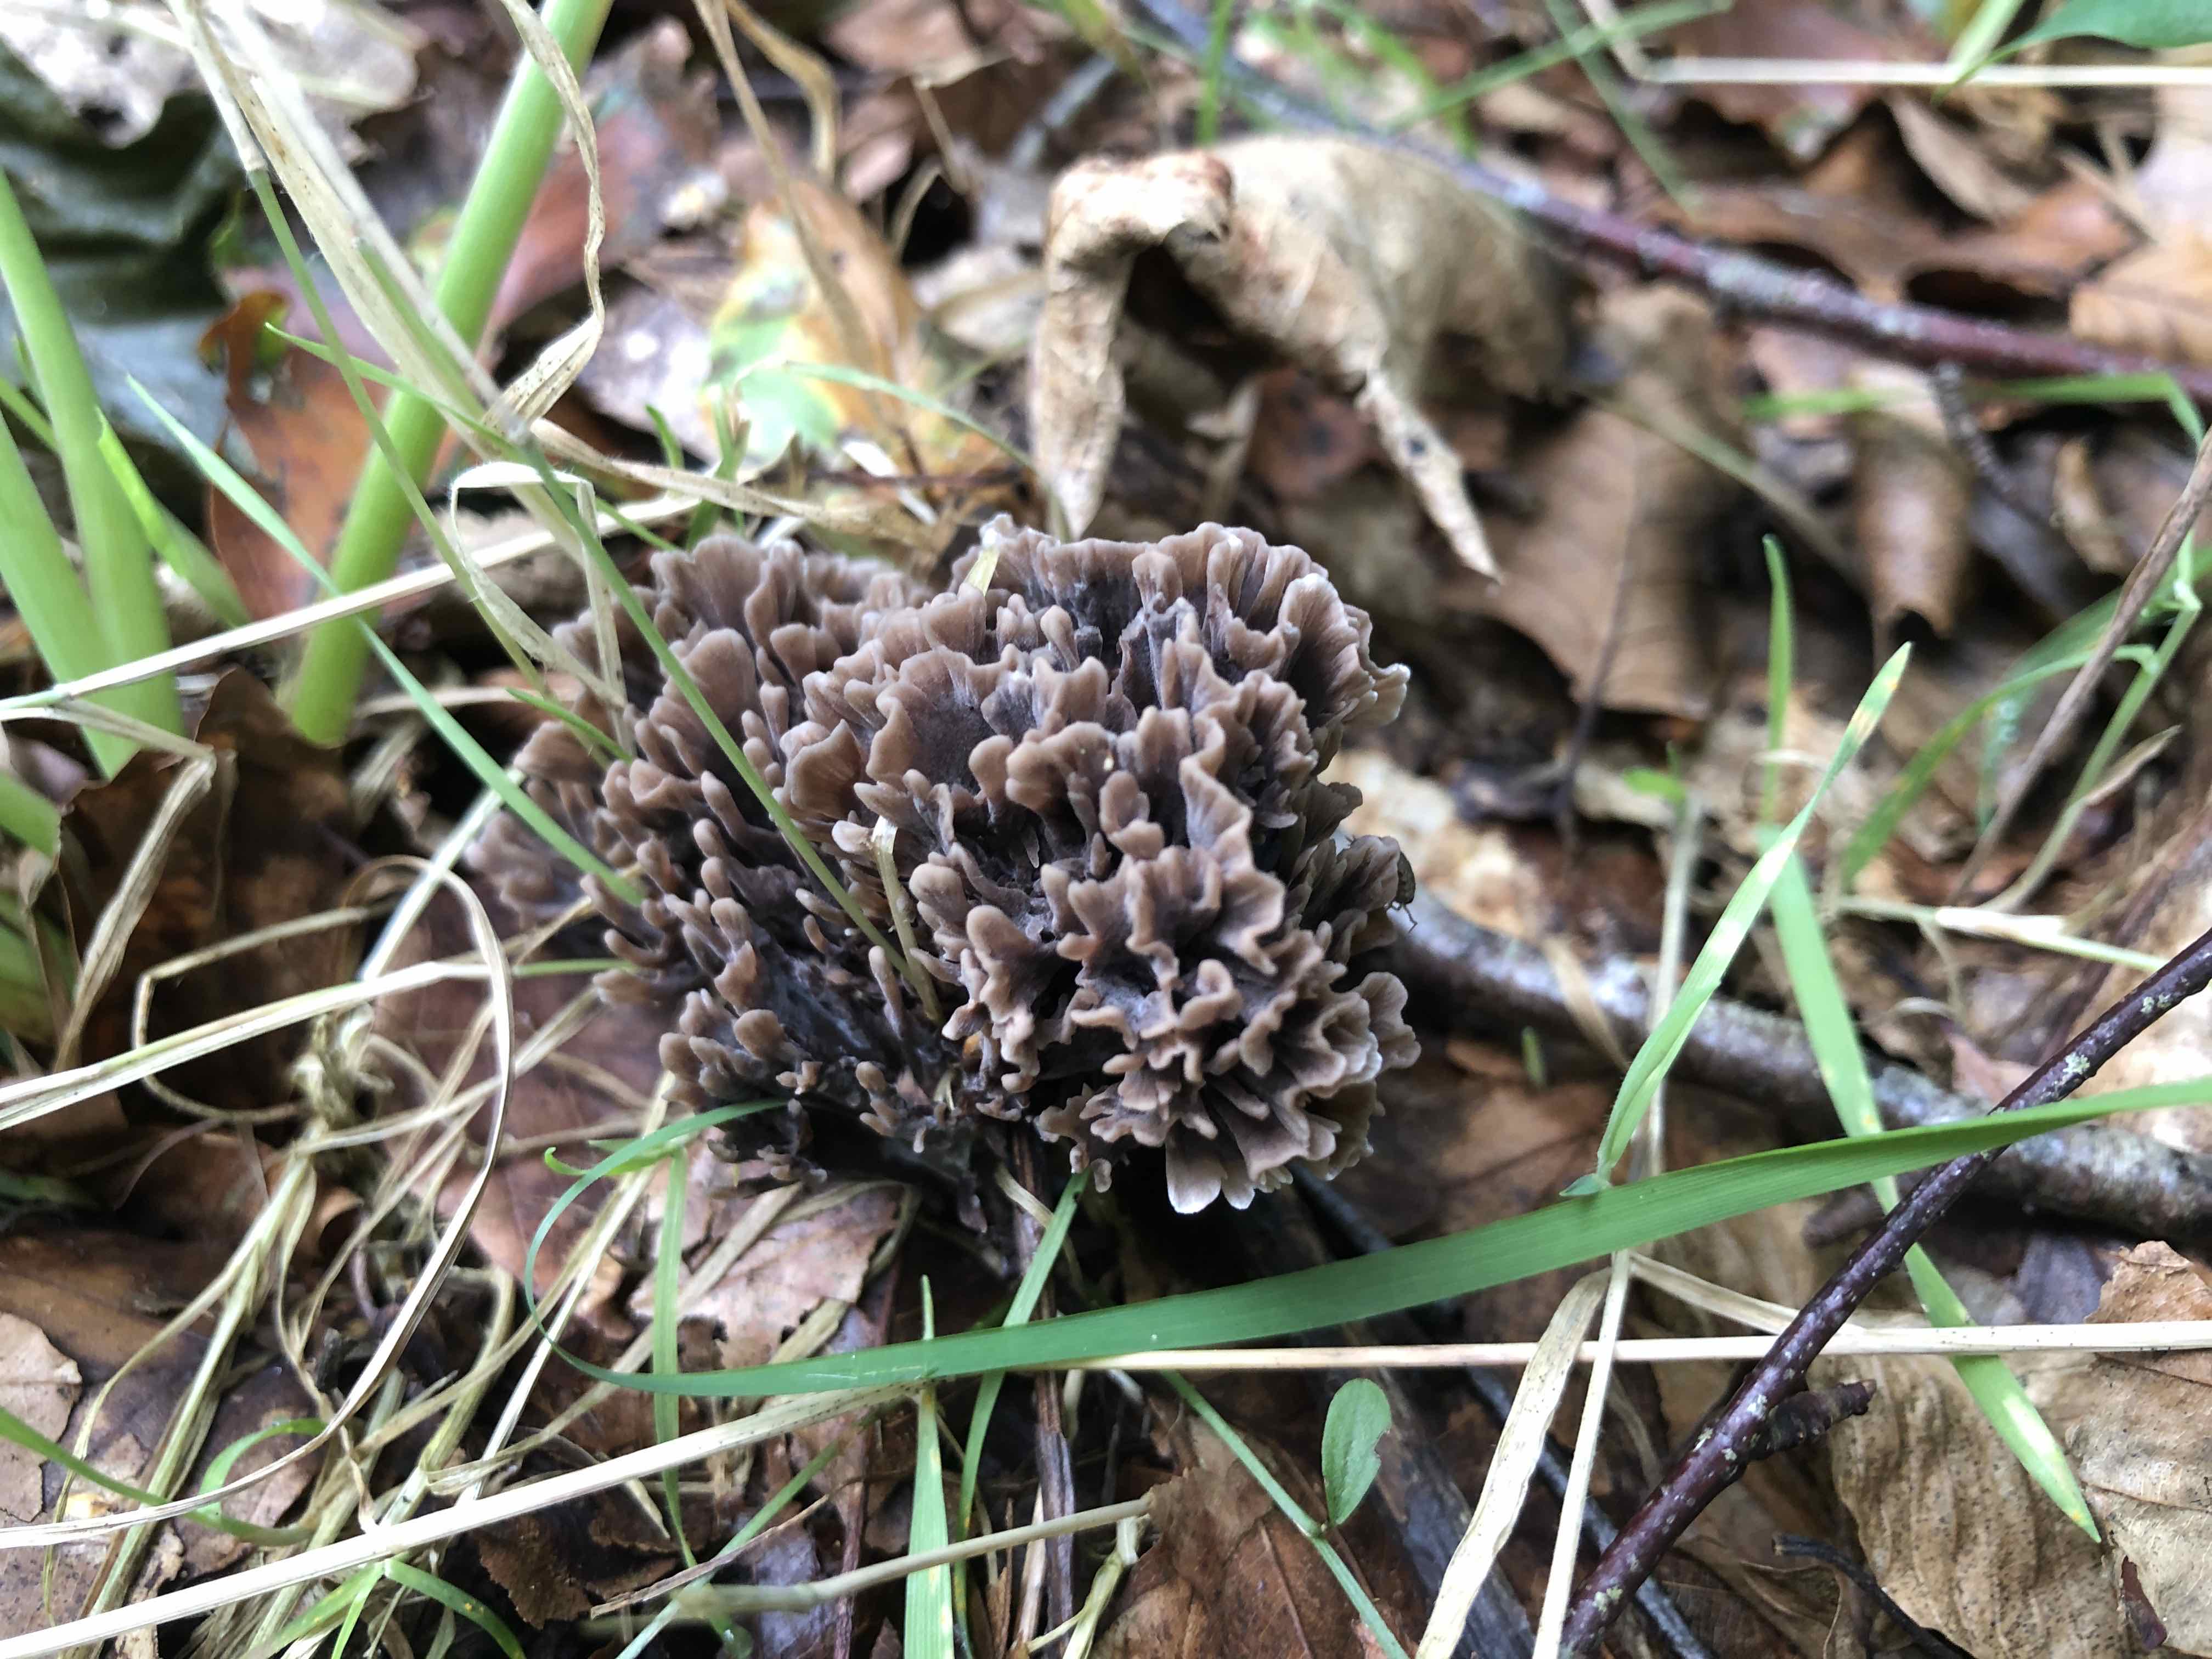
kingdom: Fungi
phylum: Basidiomycota
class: Agaricomycetes
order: Thelephorales
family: Thelephoraceae
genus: Thelephora
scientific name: Thelephora palmata
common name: grenet frynsesvamp
